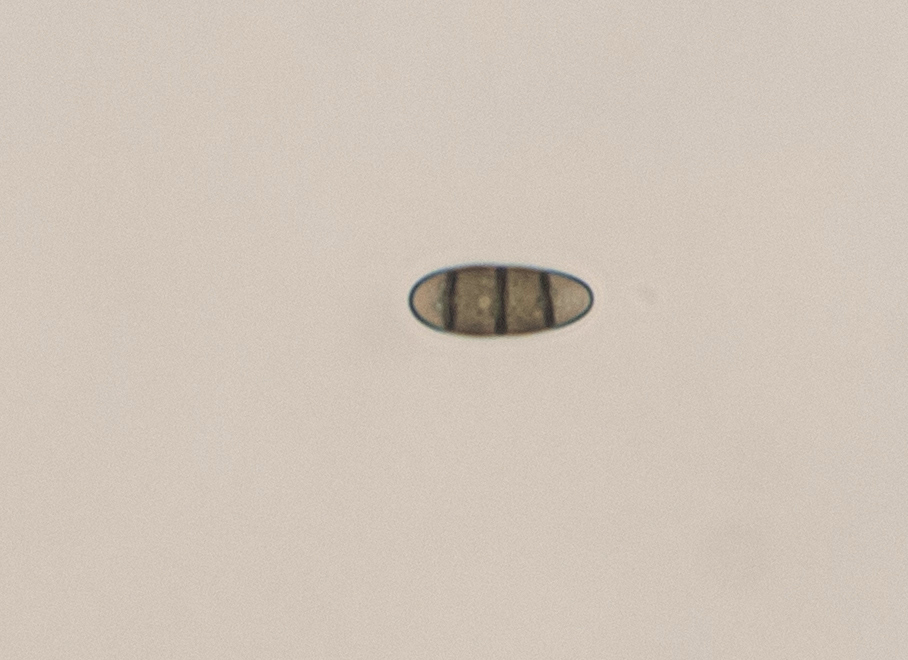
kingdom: Fungi
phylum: Ascomycota
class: Dothideomycetes
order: Hysteriales
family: Hysteriaceae
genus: Hysterium
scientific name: Hysterium
